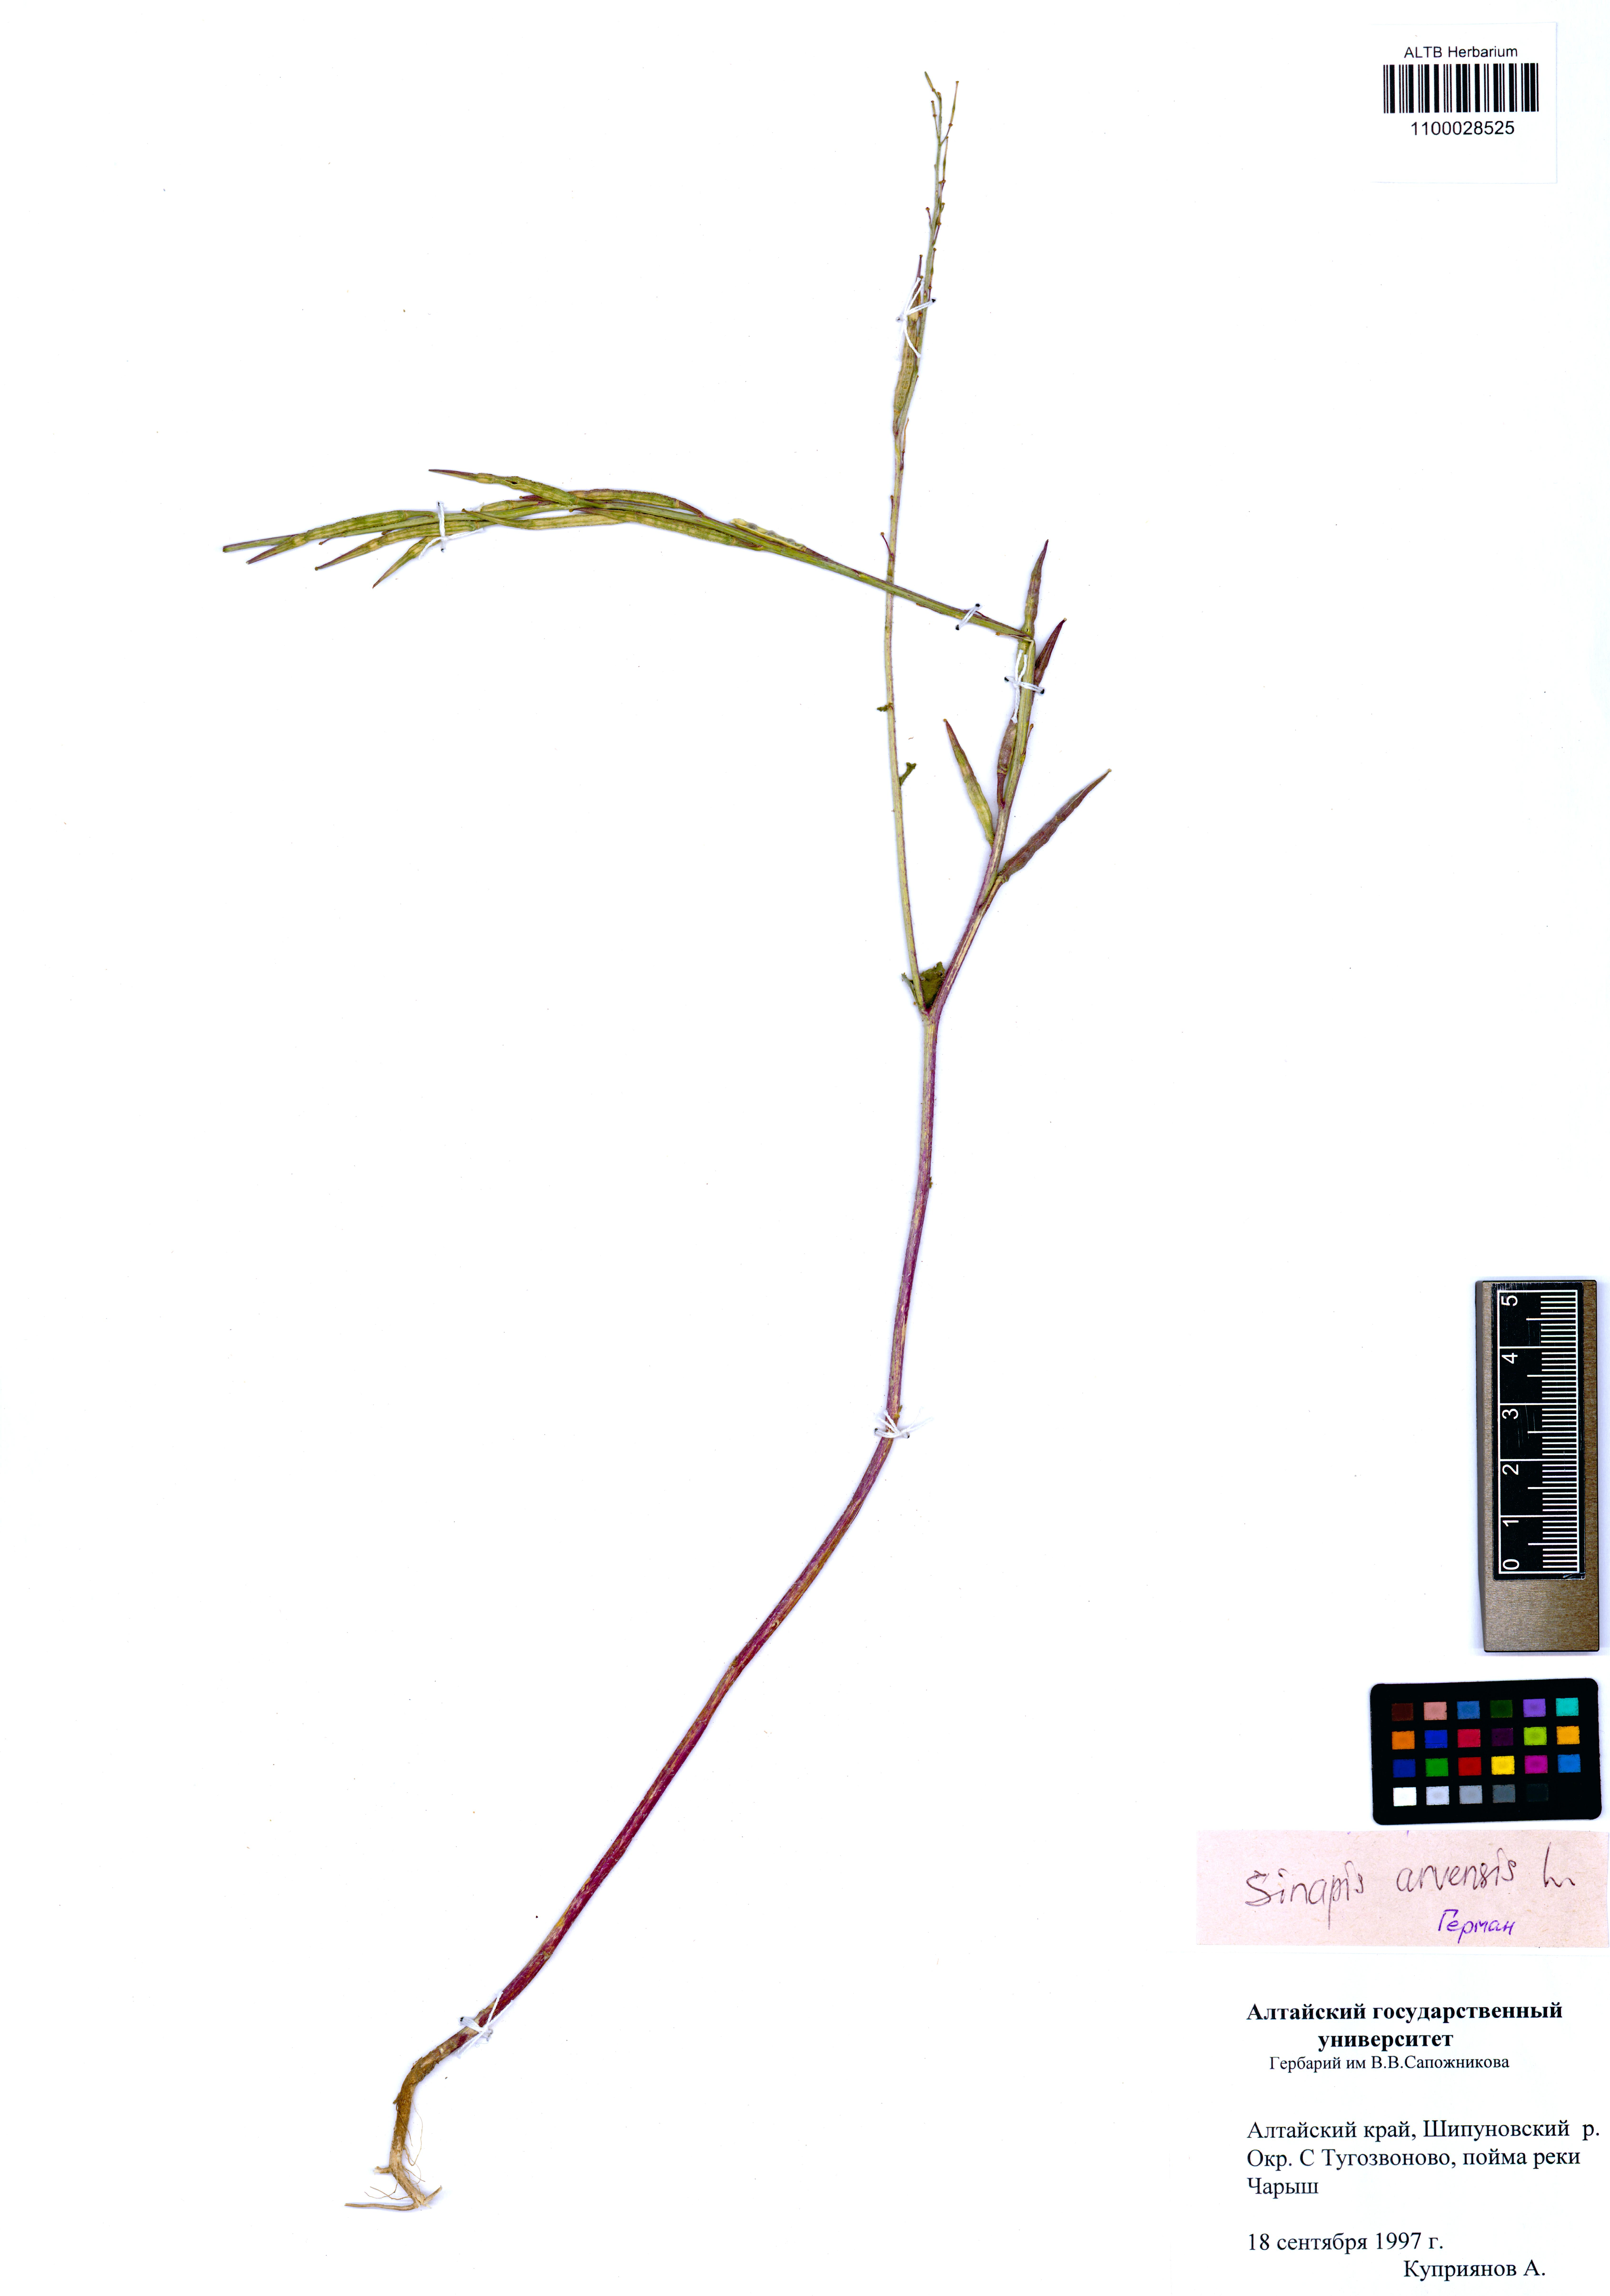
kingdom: Plantae
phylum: Tracheophyta
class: Magnoliopsida
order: Brassicales
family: Brassicaceae
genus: Sinapis
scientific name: Sinapis arvensis
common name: Charlock
